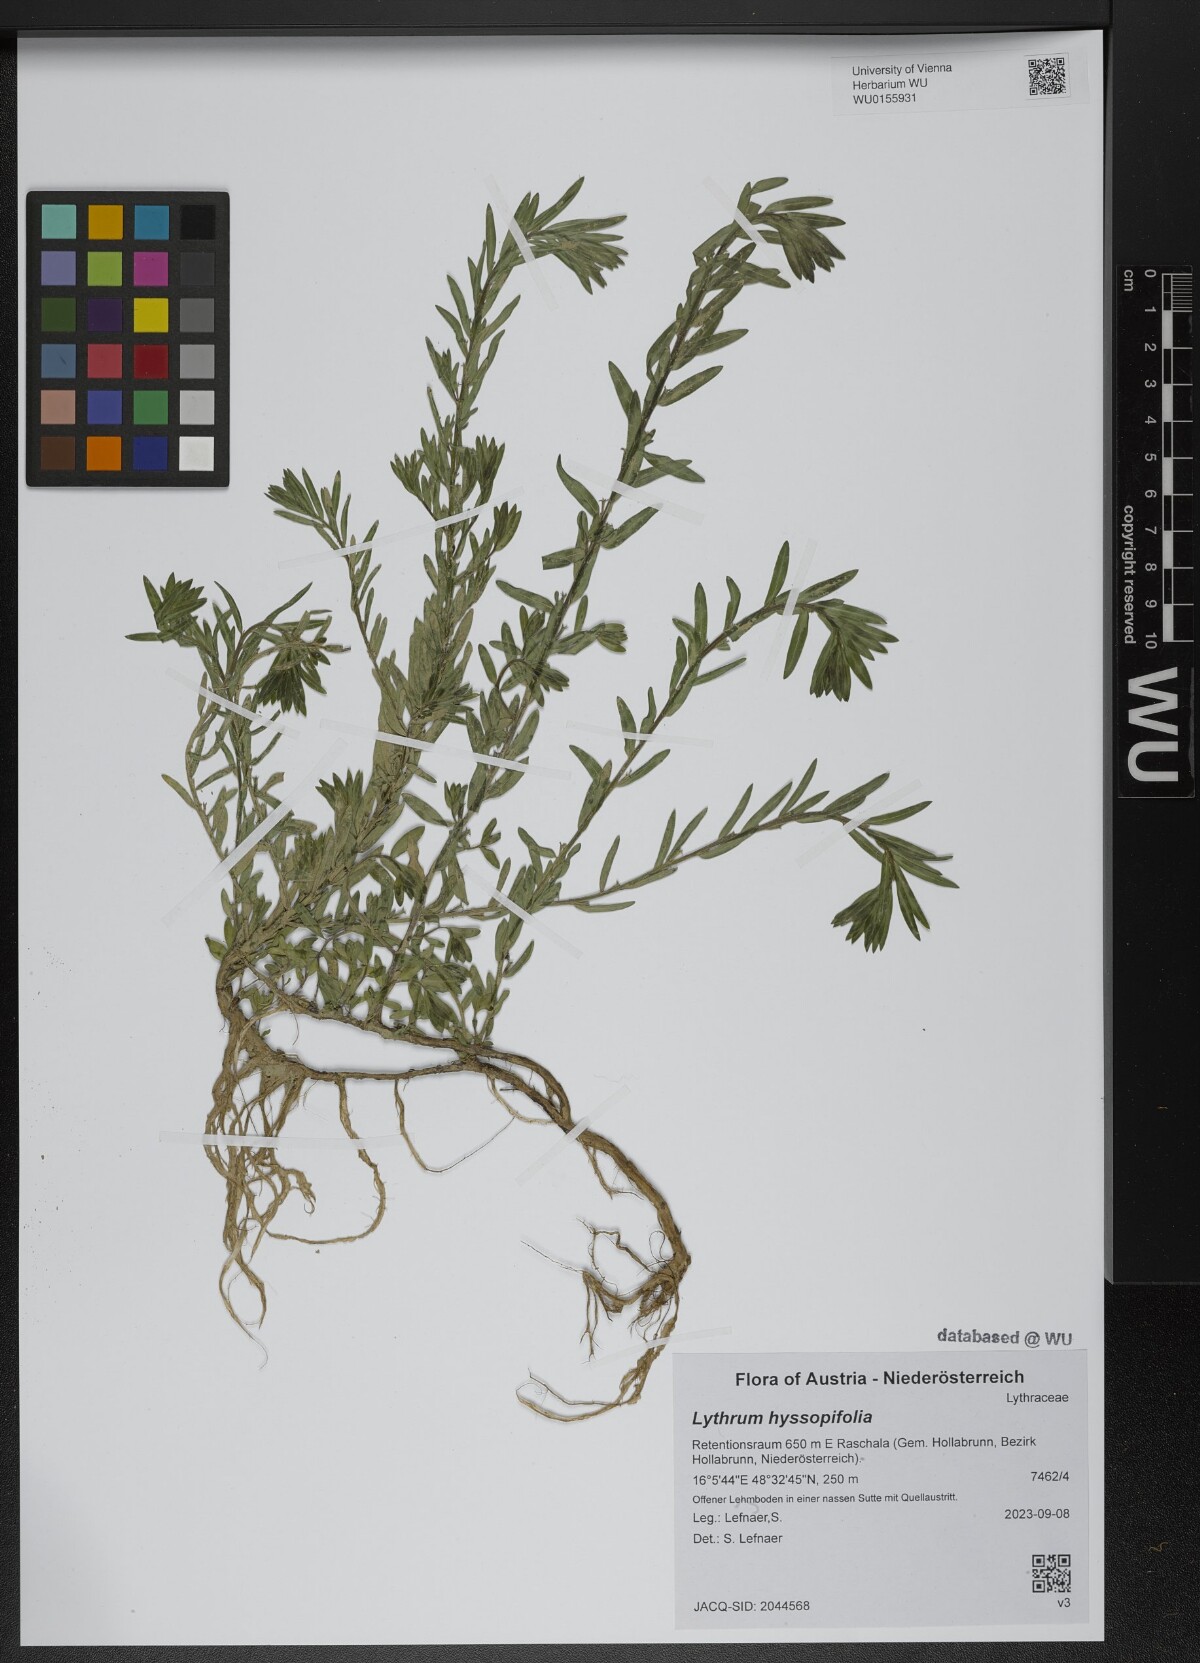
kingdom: Plantae
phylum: Tracheophyta
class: Magnoliopsida
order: Myrtales
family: Lythraceae
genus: Lythrum
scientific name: Lythrum hyssopifolia
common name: Grass-poly
